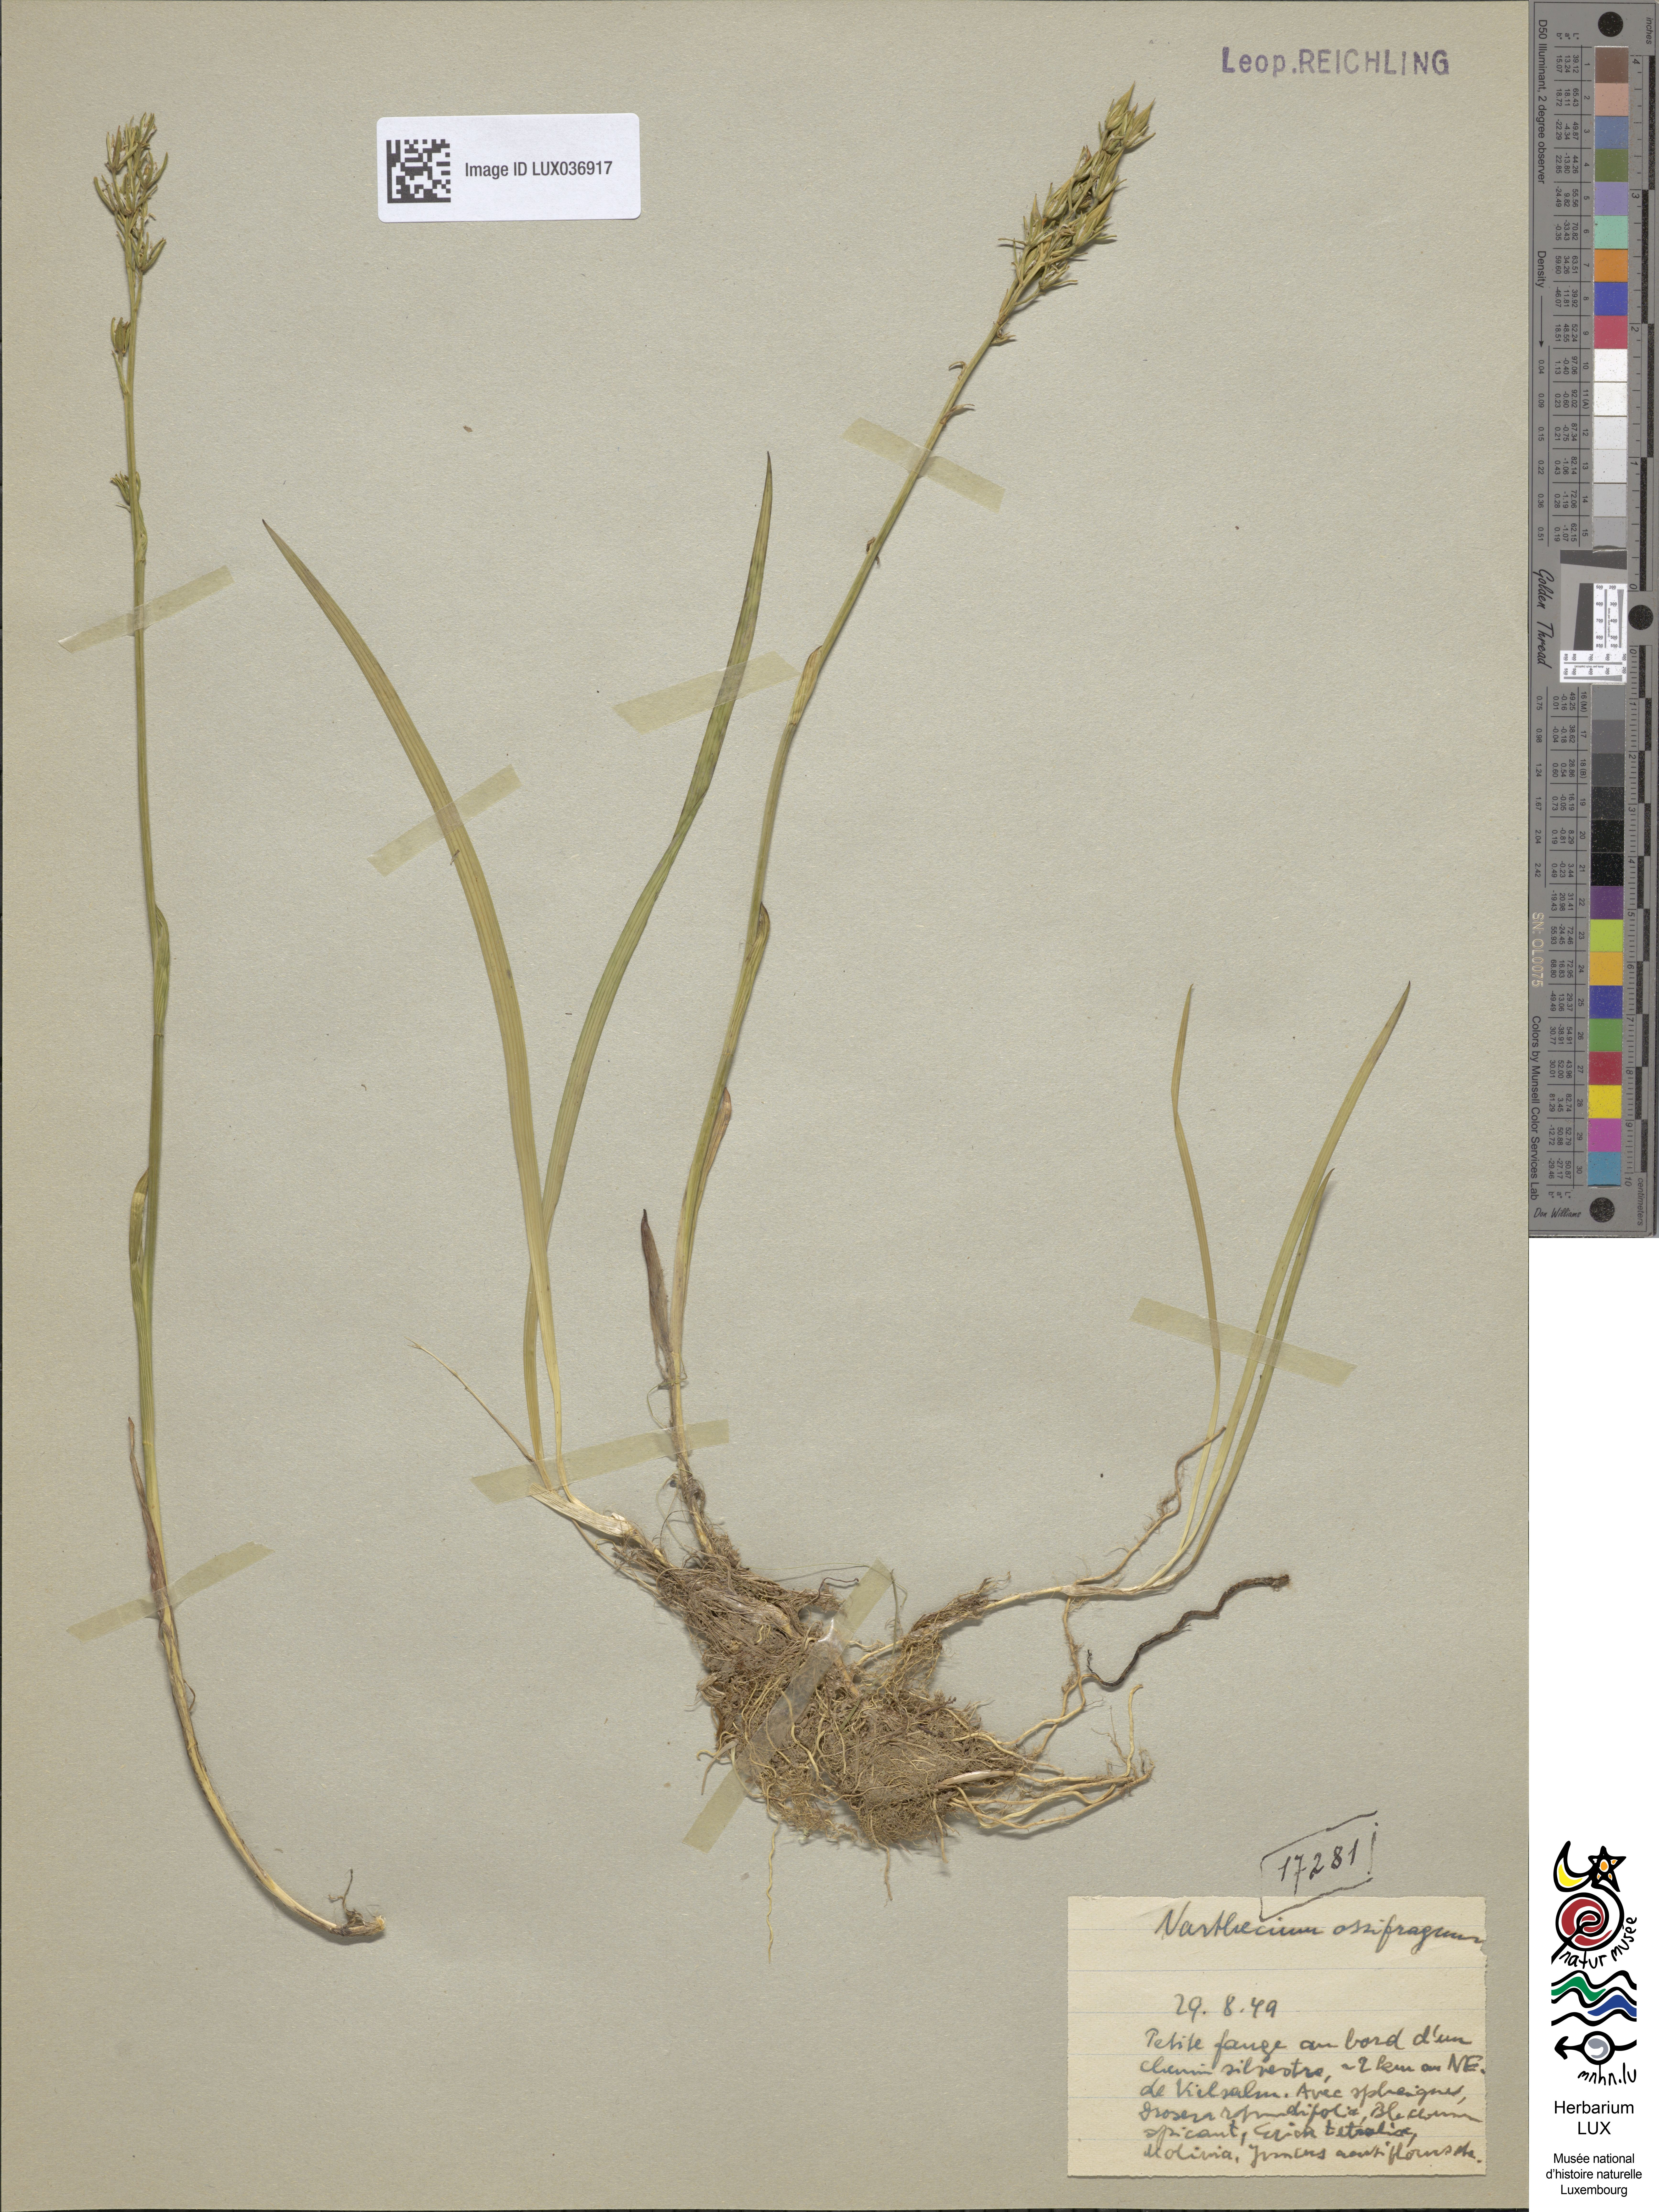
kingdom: Plantae
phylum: Tracheophyta
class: Liliopsida
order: Dioscoreales
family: Nartheciaceae
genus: Narthecium
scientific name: Narthecium ossifragum
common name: Bog asphodel
